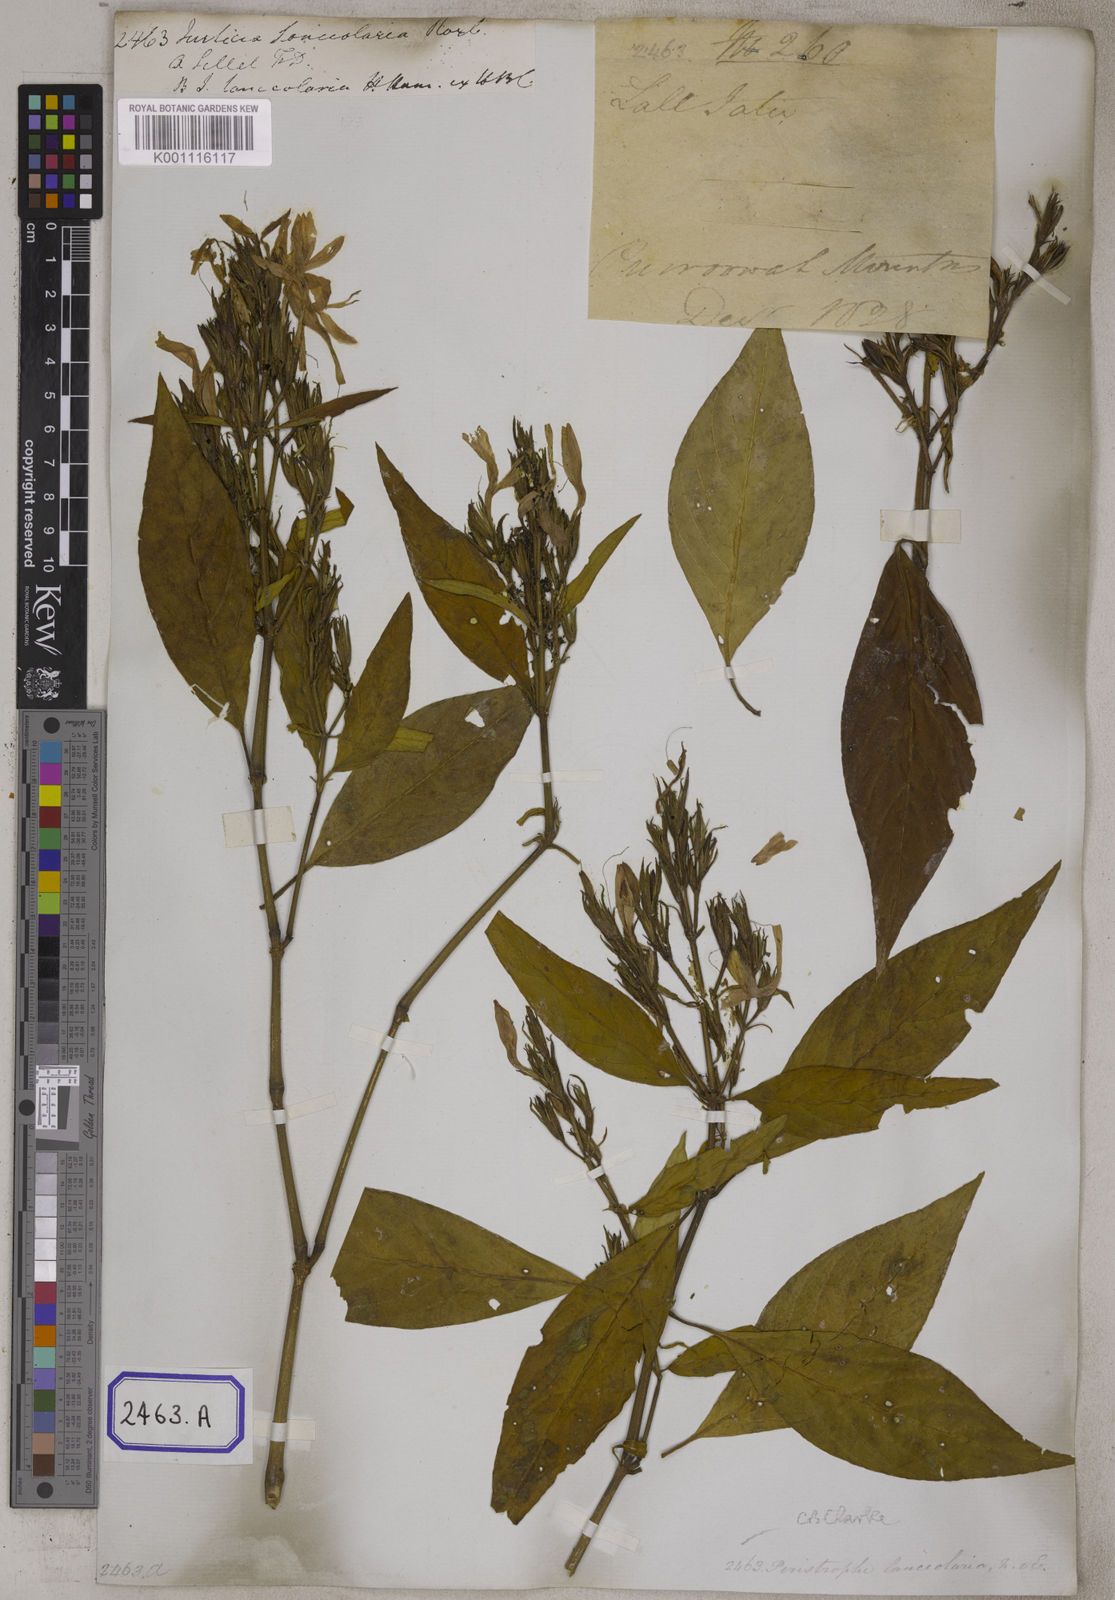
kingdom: Plantae
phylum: Tracheophyta
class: Magnoliopsida
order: Lamiales
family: Acanthaceae
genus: Dicliptera
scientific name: Dicliptera lanceolaria
